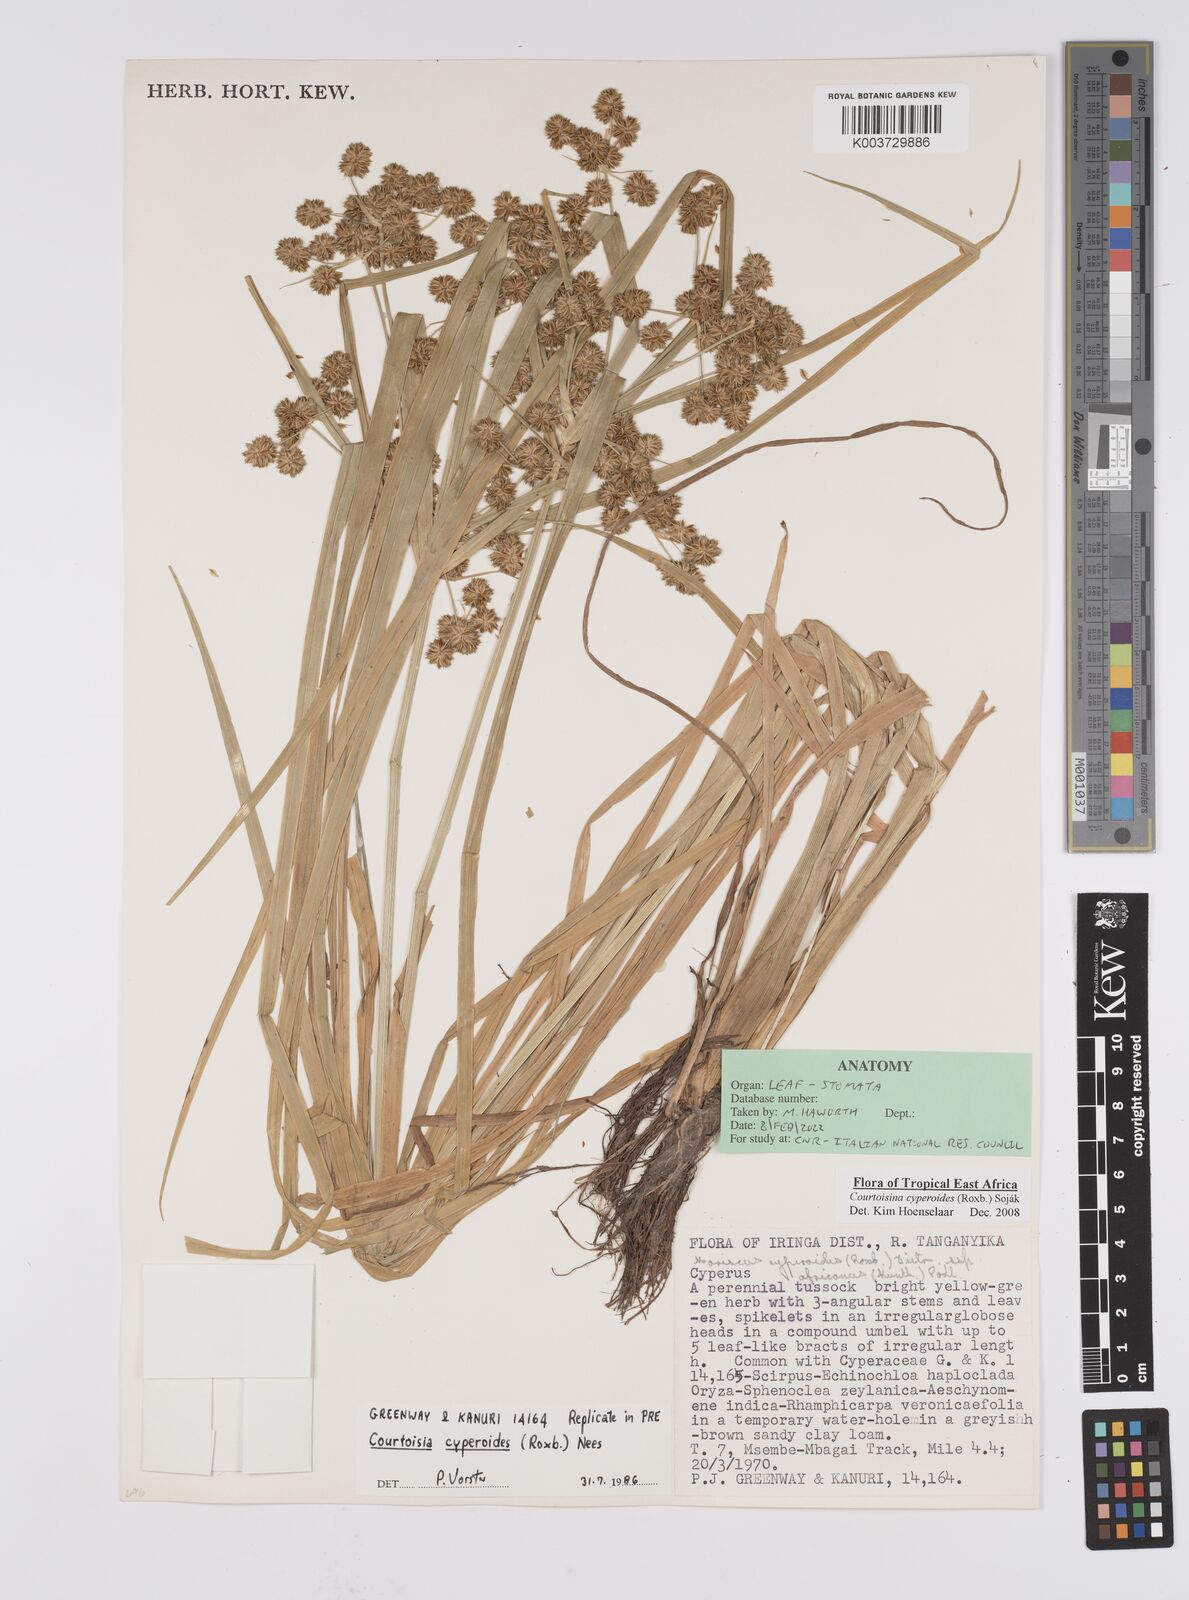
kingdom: Plantae
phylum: Tracheophyta
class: Liliopsida
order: Poales
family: Cyperaceae
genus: Cyperus
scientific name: Cyperus cyperoides
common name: Pacific island flat sedge
